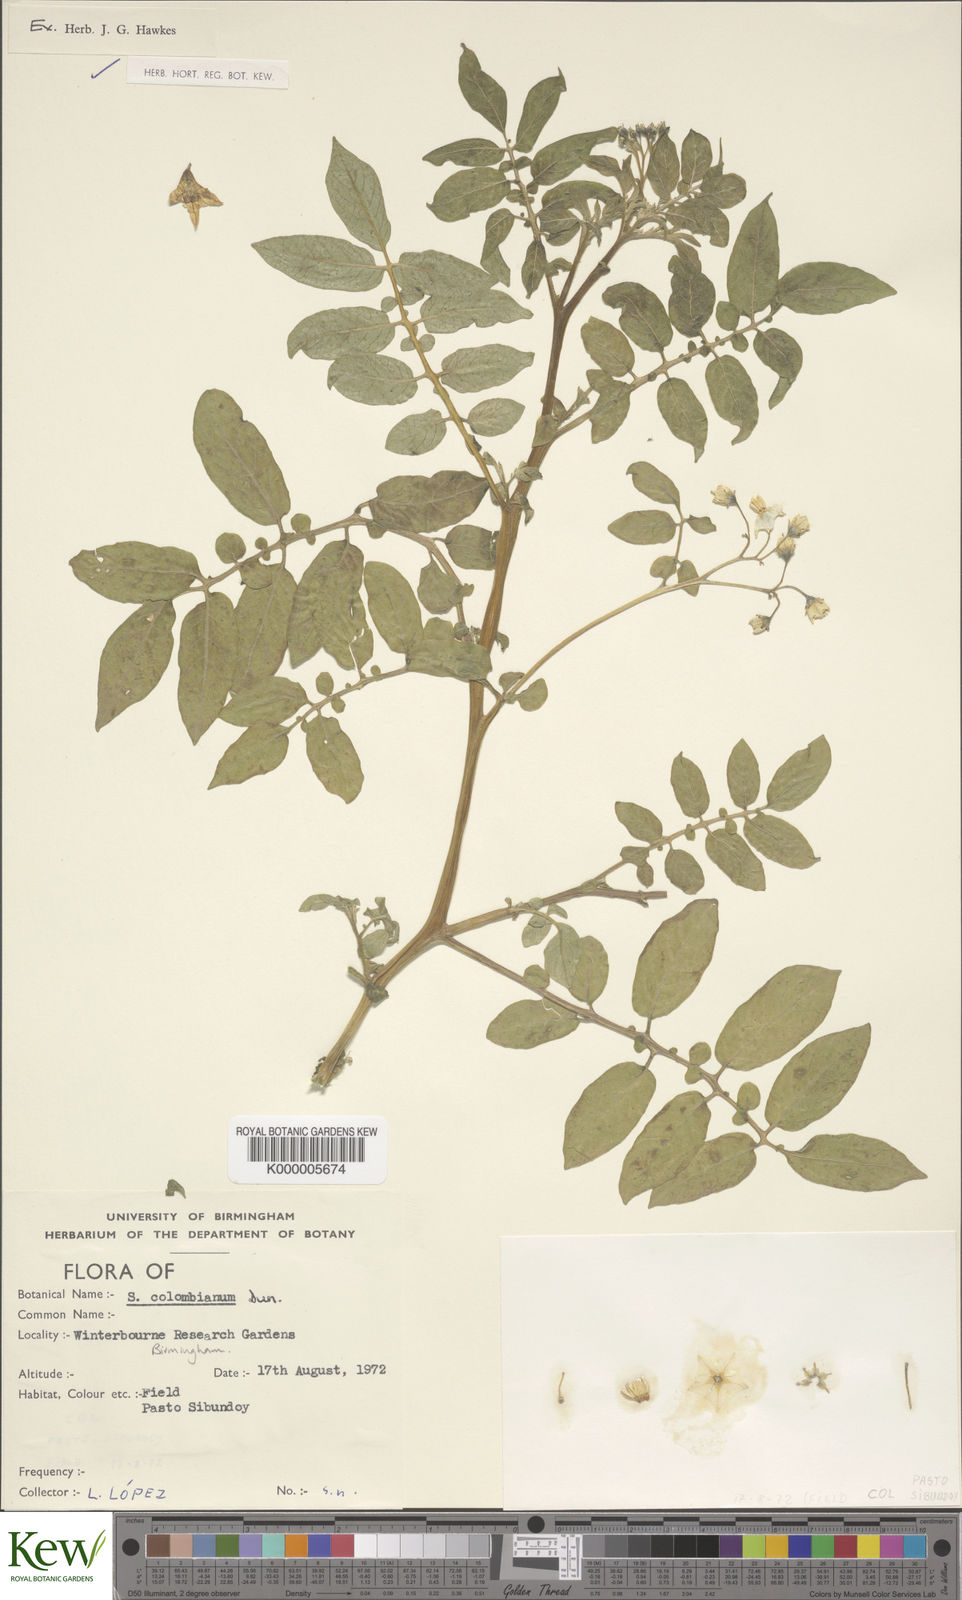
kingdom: Plantae
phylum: Tracheophyta
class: Magnoliopsida
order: Solanales
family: Solanaceae
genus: Solanum
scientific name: Solanum colombianum
